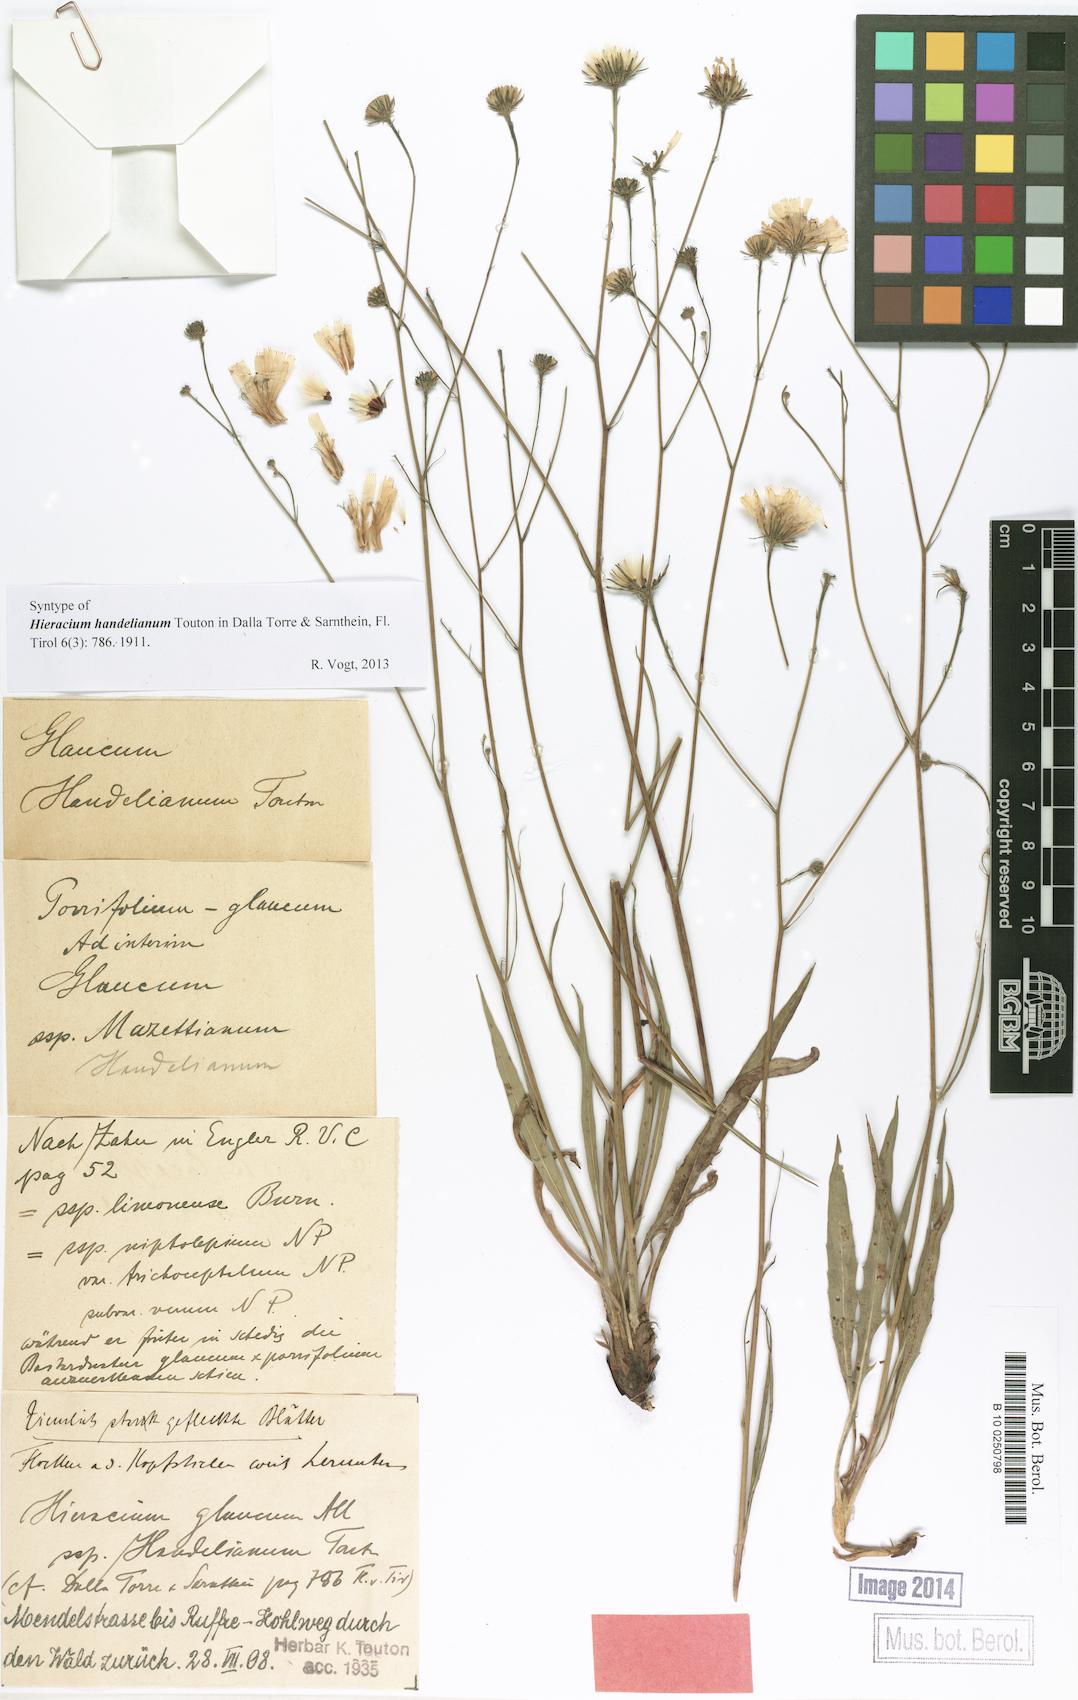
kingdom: Plantae
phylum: Tracheophyta
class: Magnoliopsida
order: Asterales
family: Asteraceae
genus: Hieracium
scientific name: Hieracium handelianum
